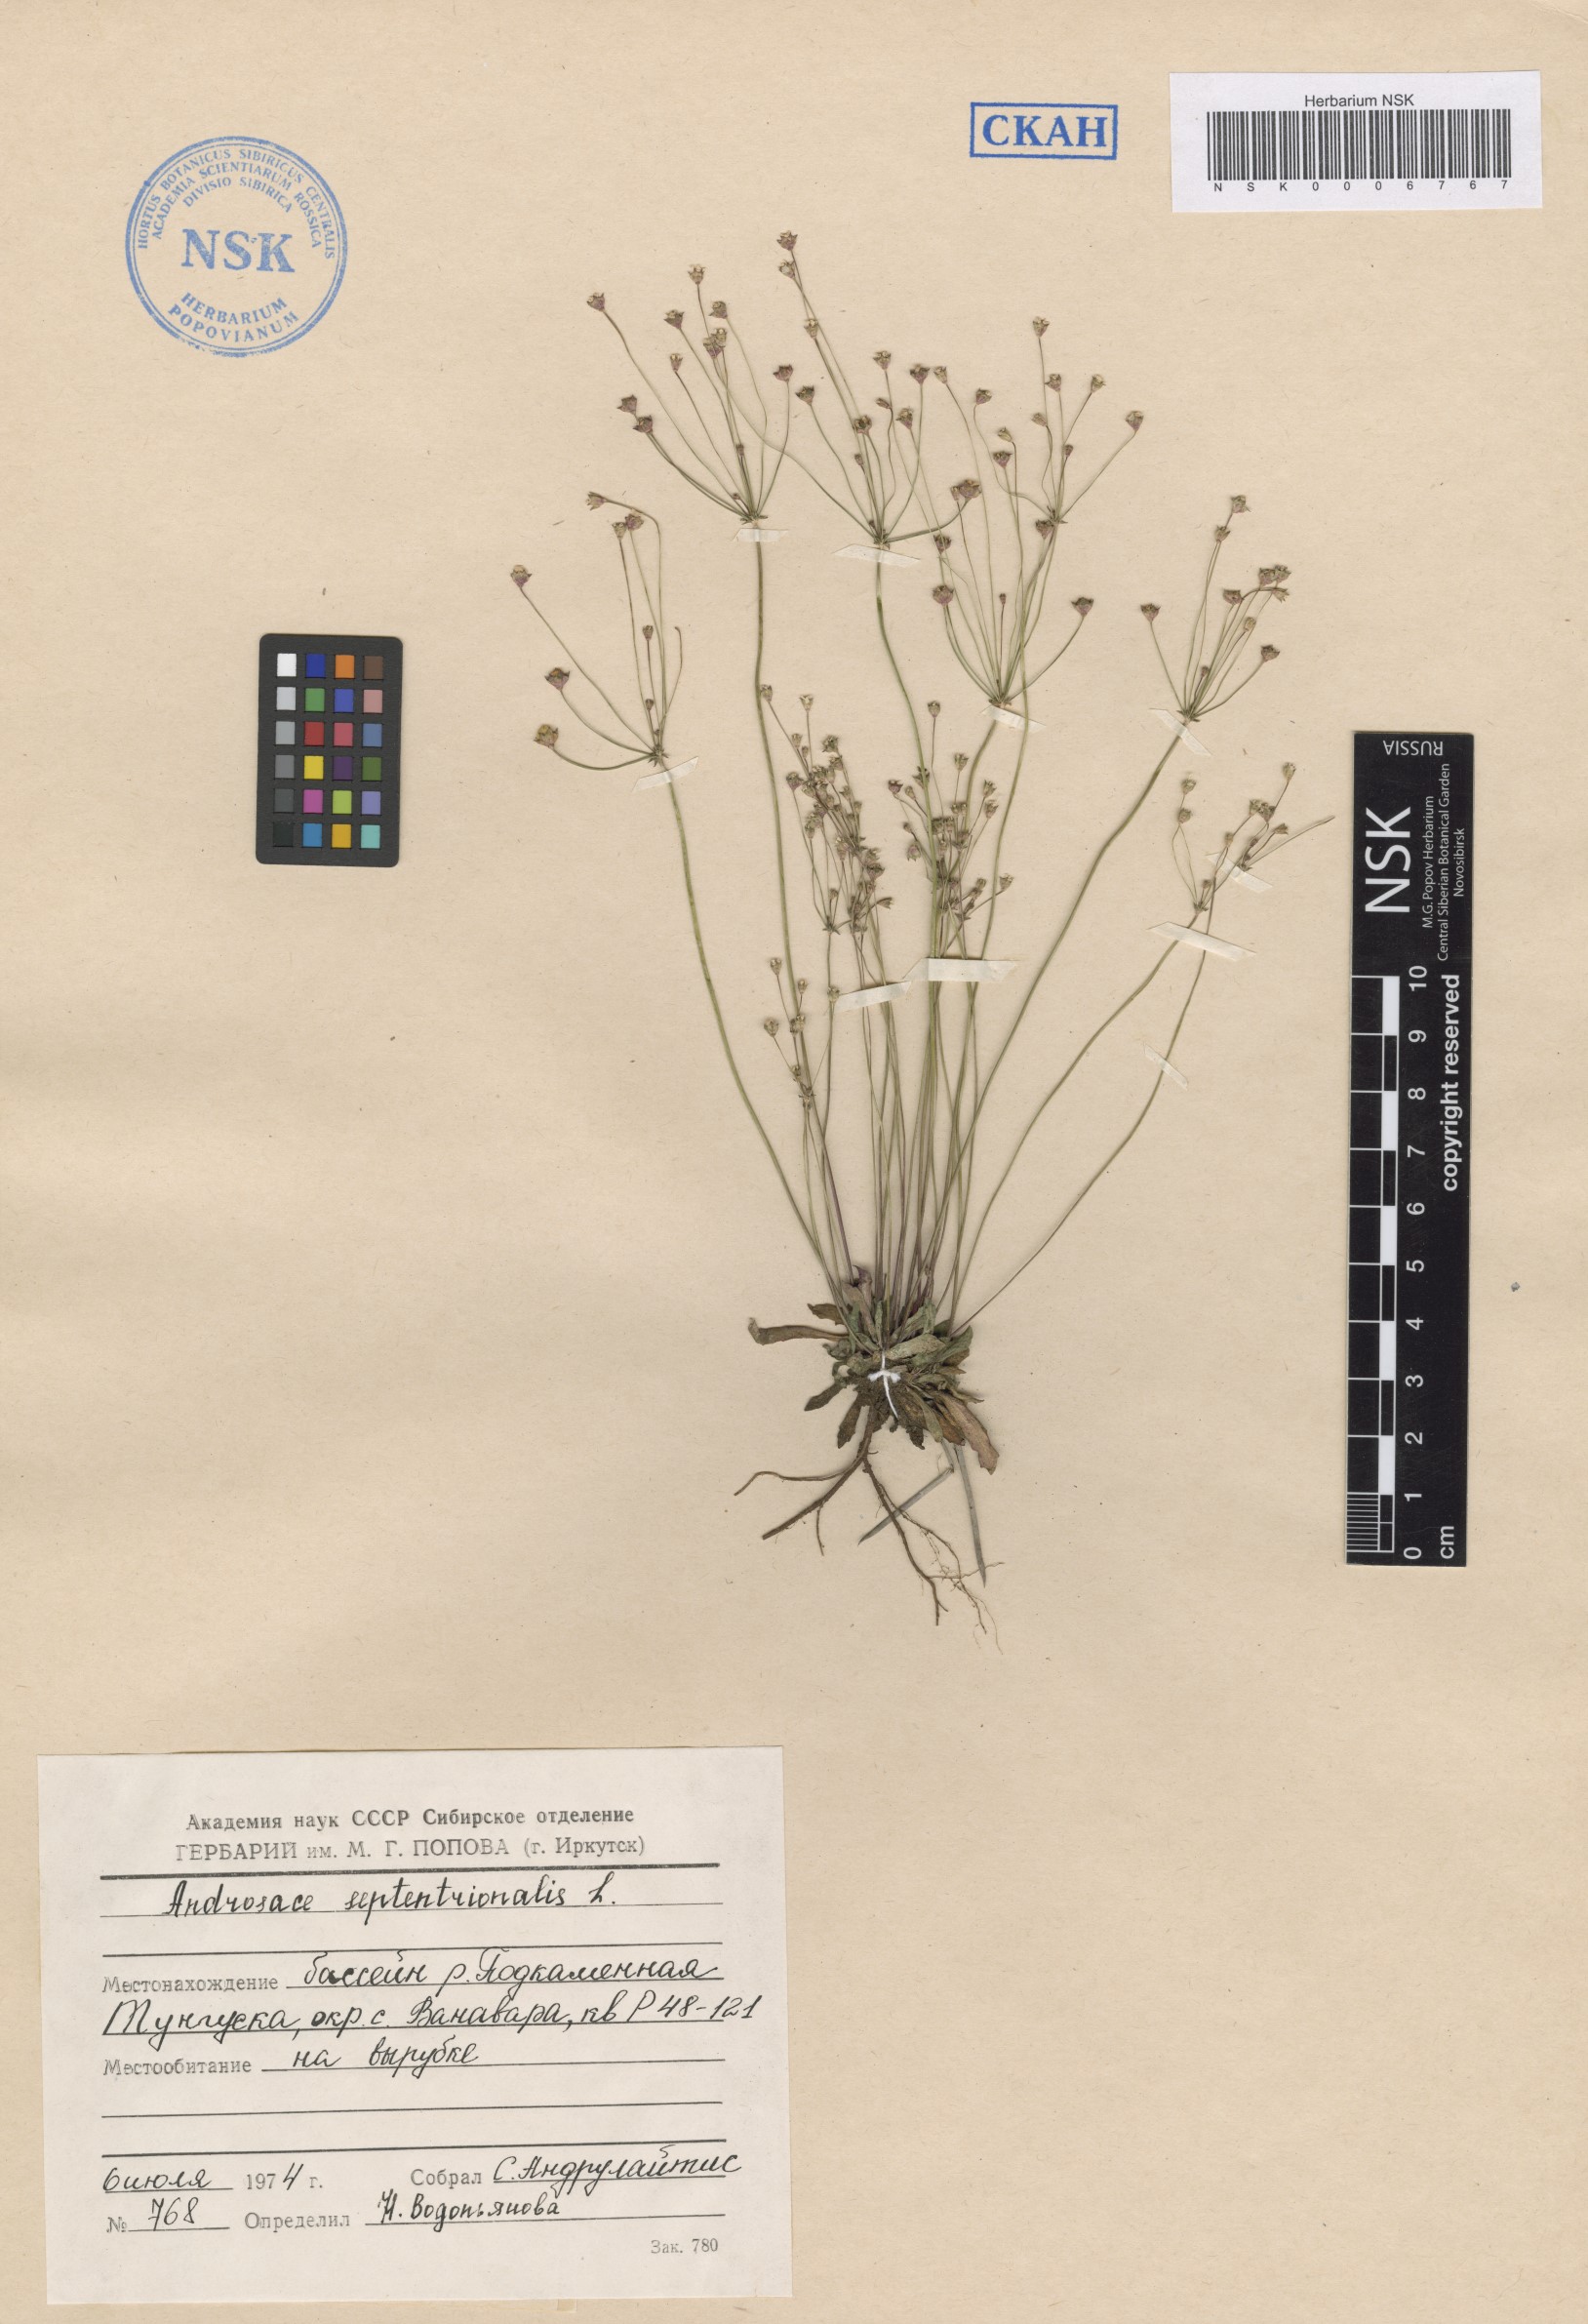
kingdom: Plantae
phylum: Tracheophyta
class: Magnoliopsida
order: Ericales
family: Primulaceae
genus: Androsace
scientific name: Androsace septentrionalis
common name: Hairy northern fairy-candelabra
